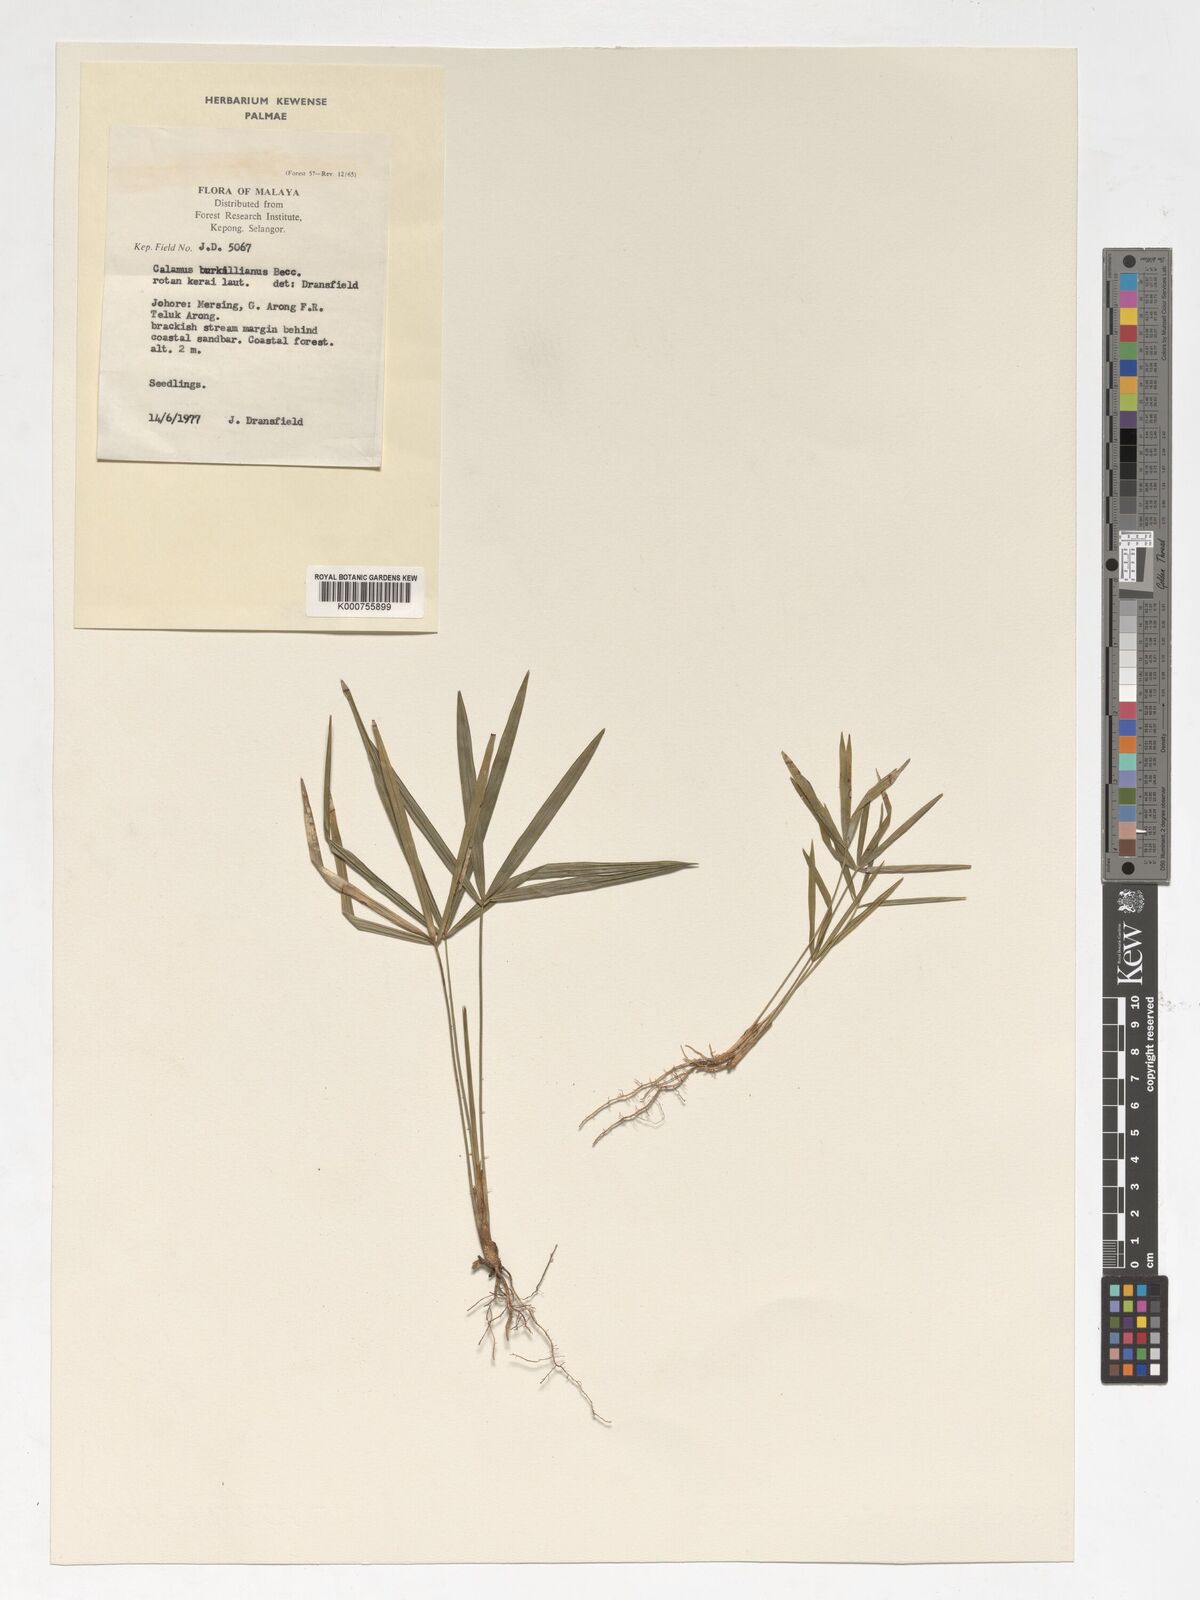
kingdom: Plantae
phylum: Tracheophyta
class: Liliopsida
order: Arecales
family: Arecaceae
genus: Calamus
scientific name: Calamus burkillianus
